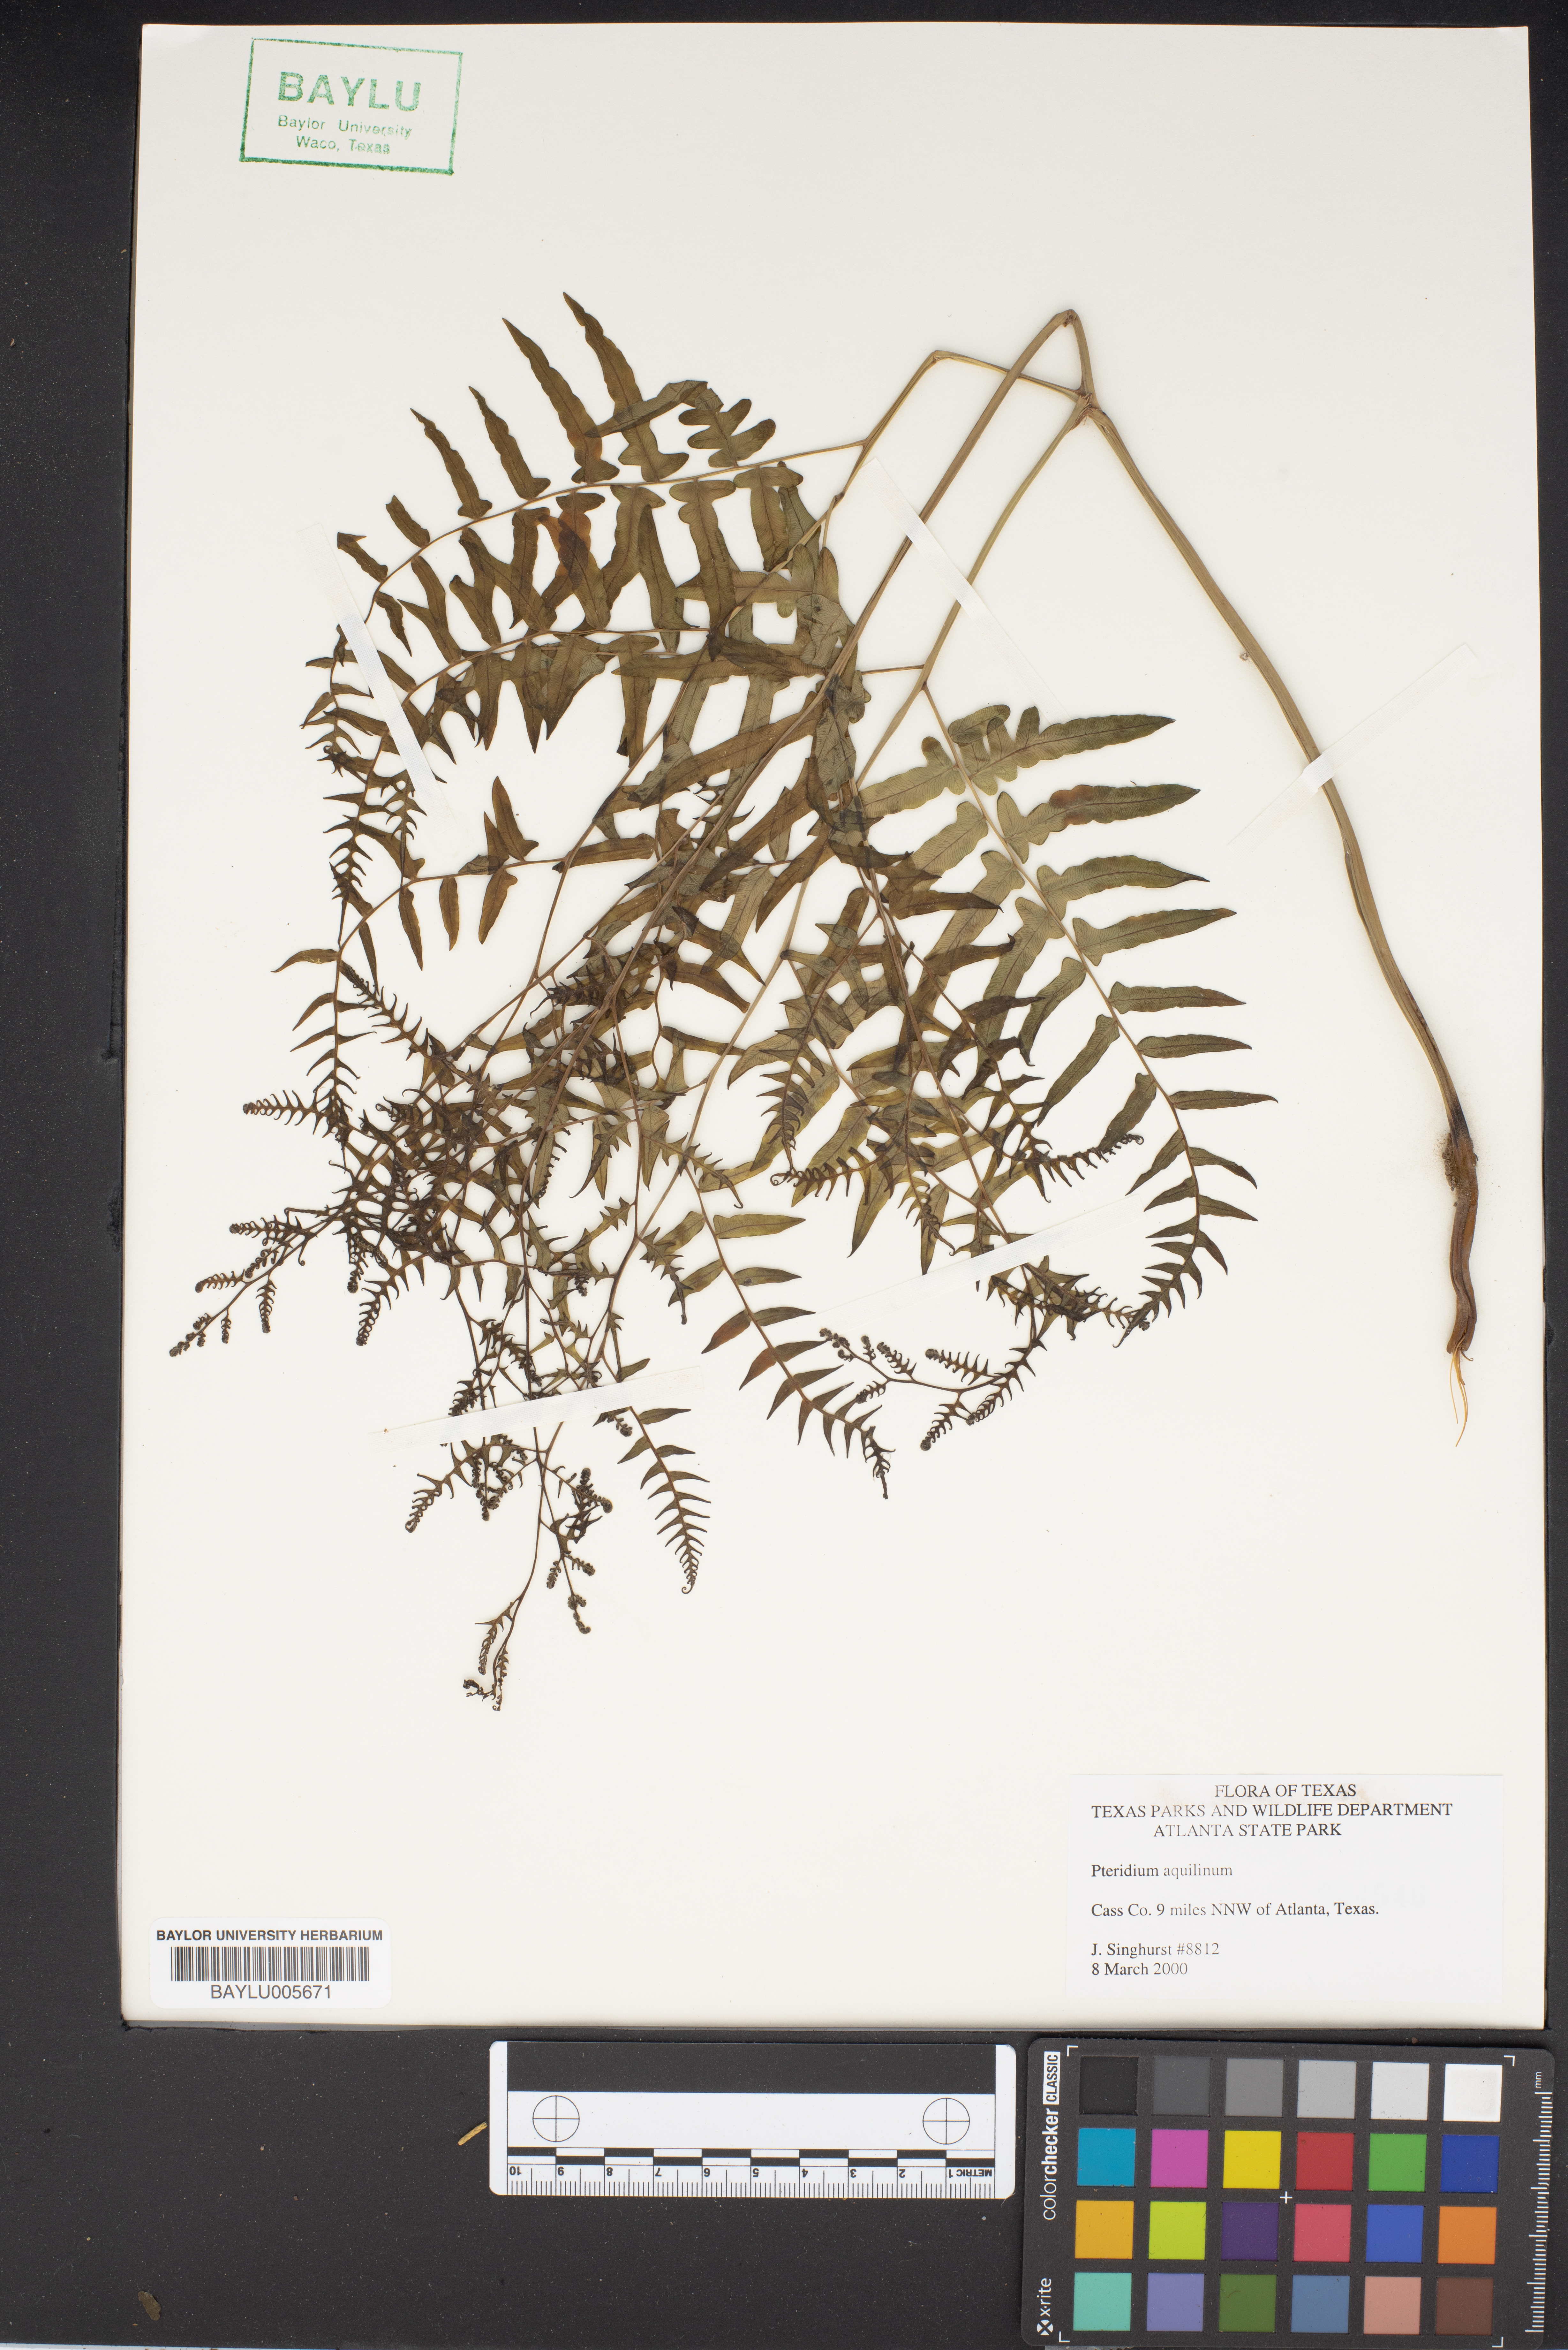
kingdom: Plantae
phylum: Tracheophyta
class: Polypodiopsida
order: Polypodiales
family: Dennstaedtiaceae
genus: Pteridium
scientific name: Pteridium aquilinum
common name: Bracken
